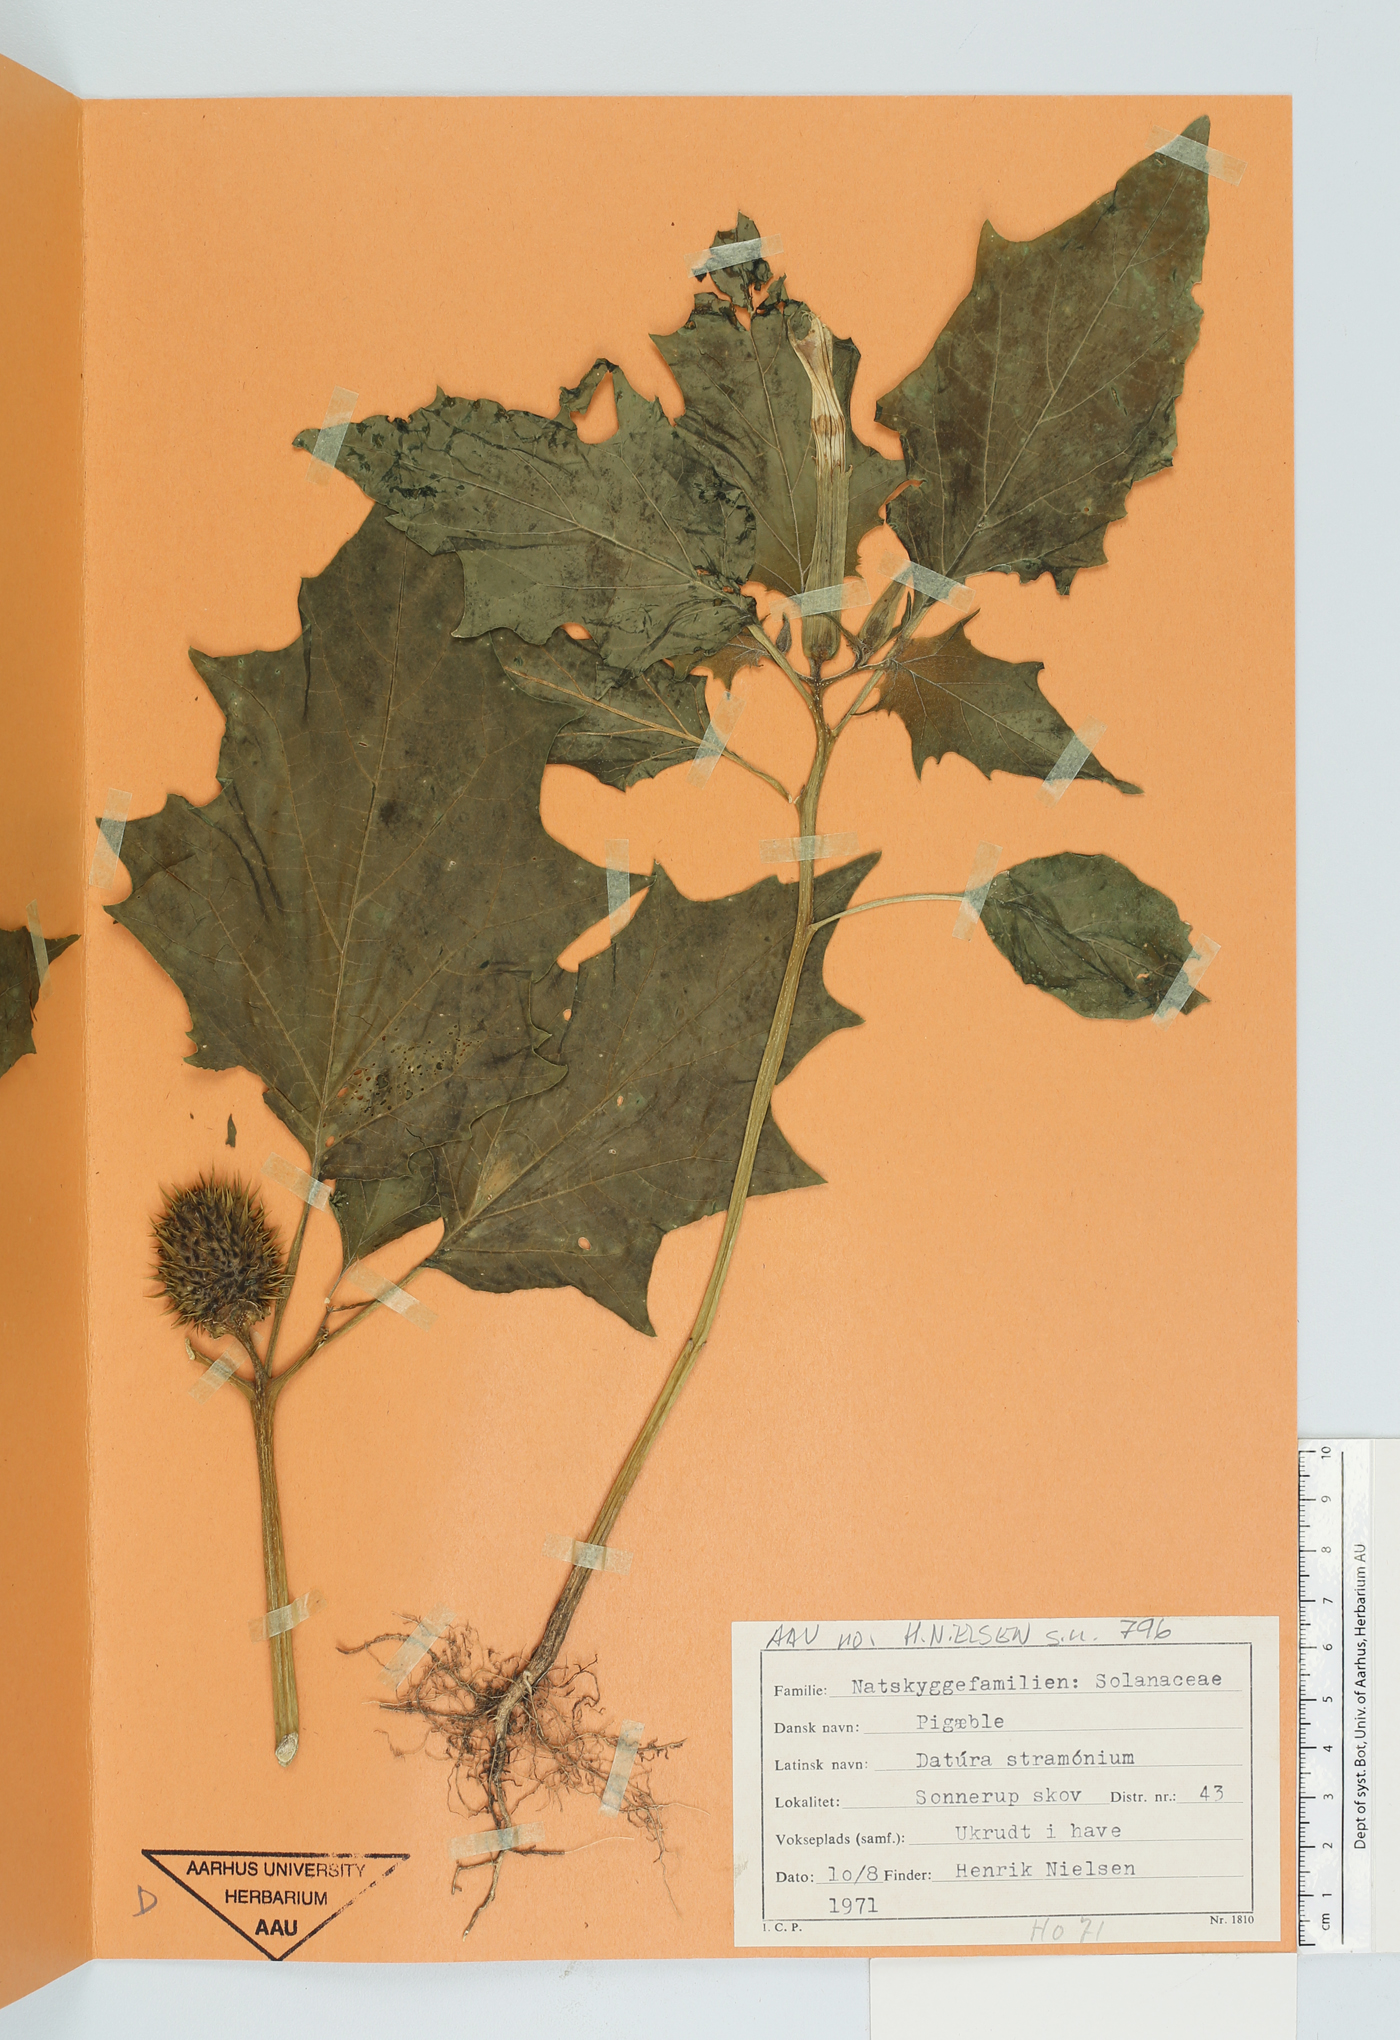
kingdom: Plantae
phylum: Tracheophyta
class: Magnoliopsida
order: Solanales
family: Solanaceae
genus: Datura
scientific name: Datura stramonium
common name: Thorn-apple
